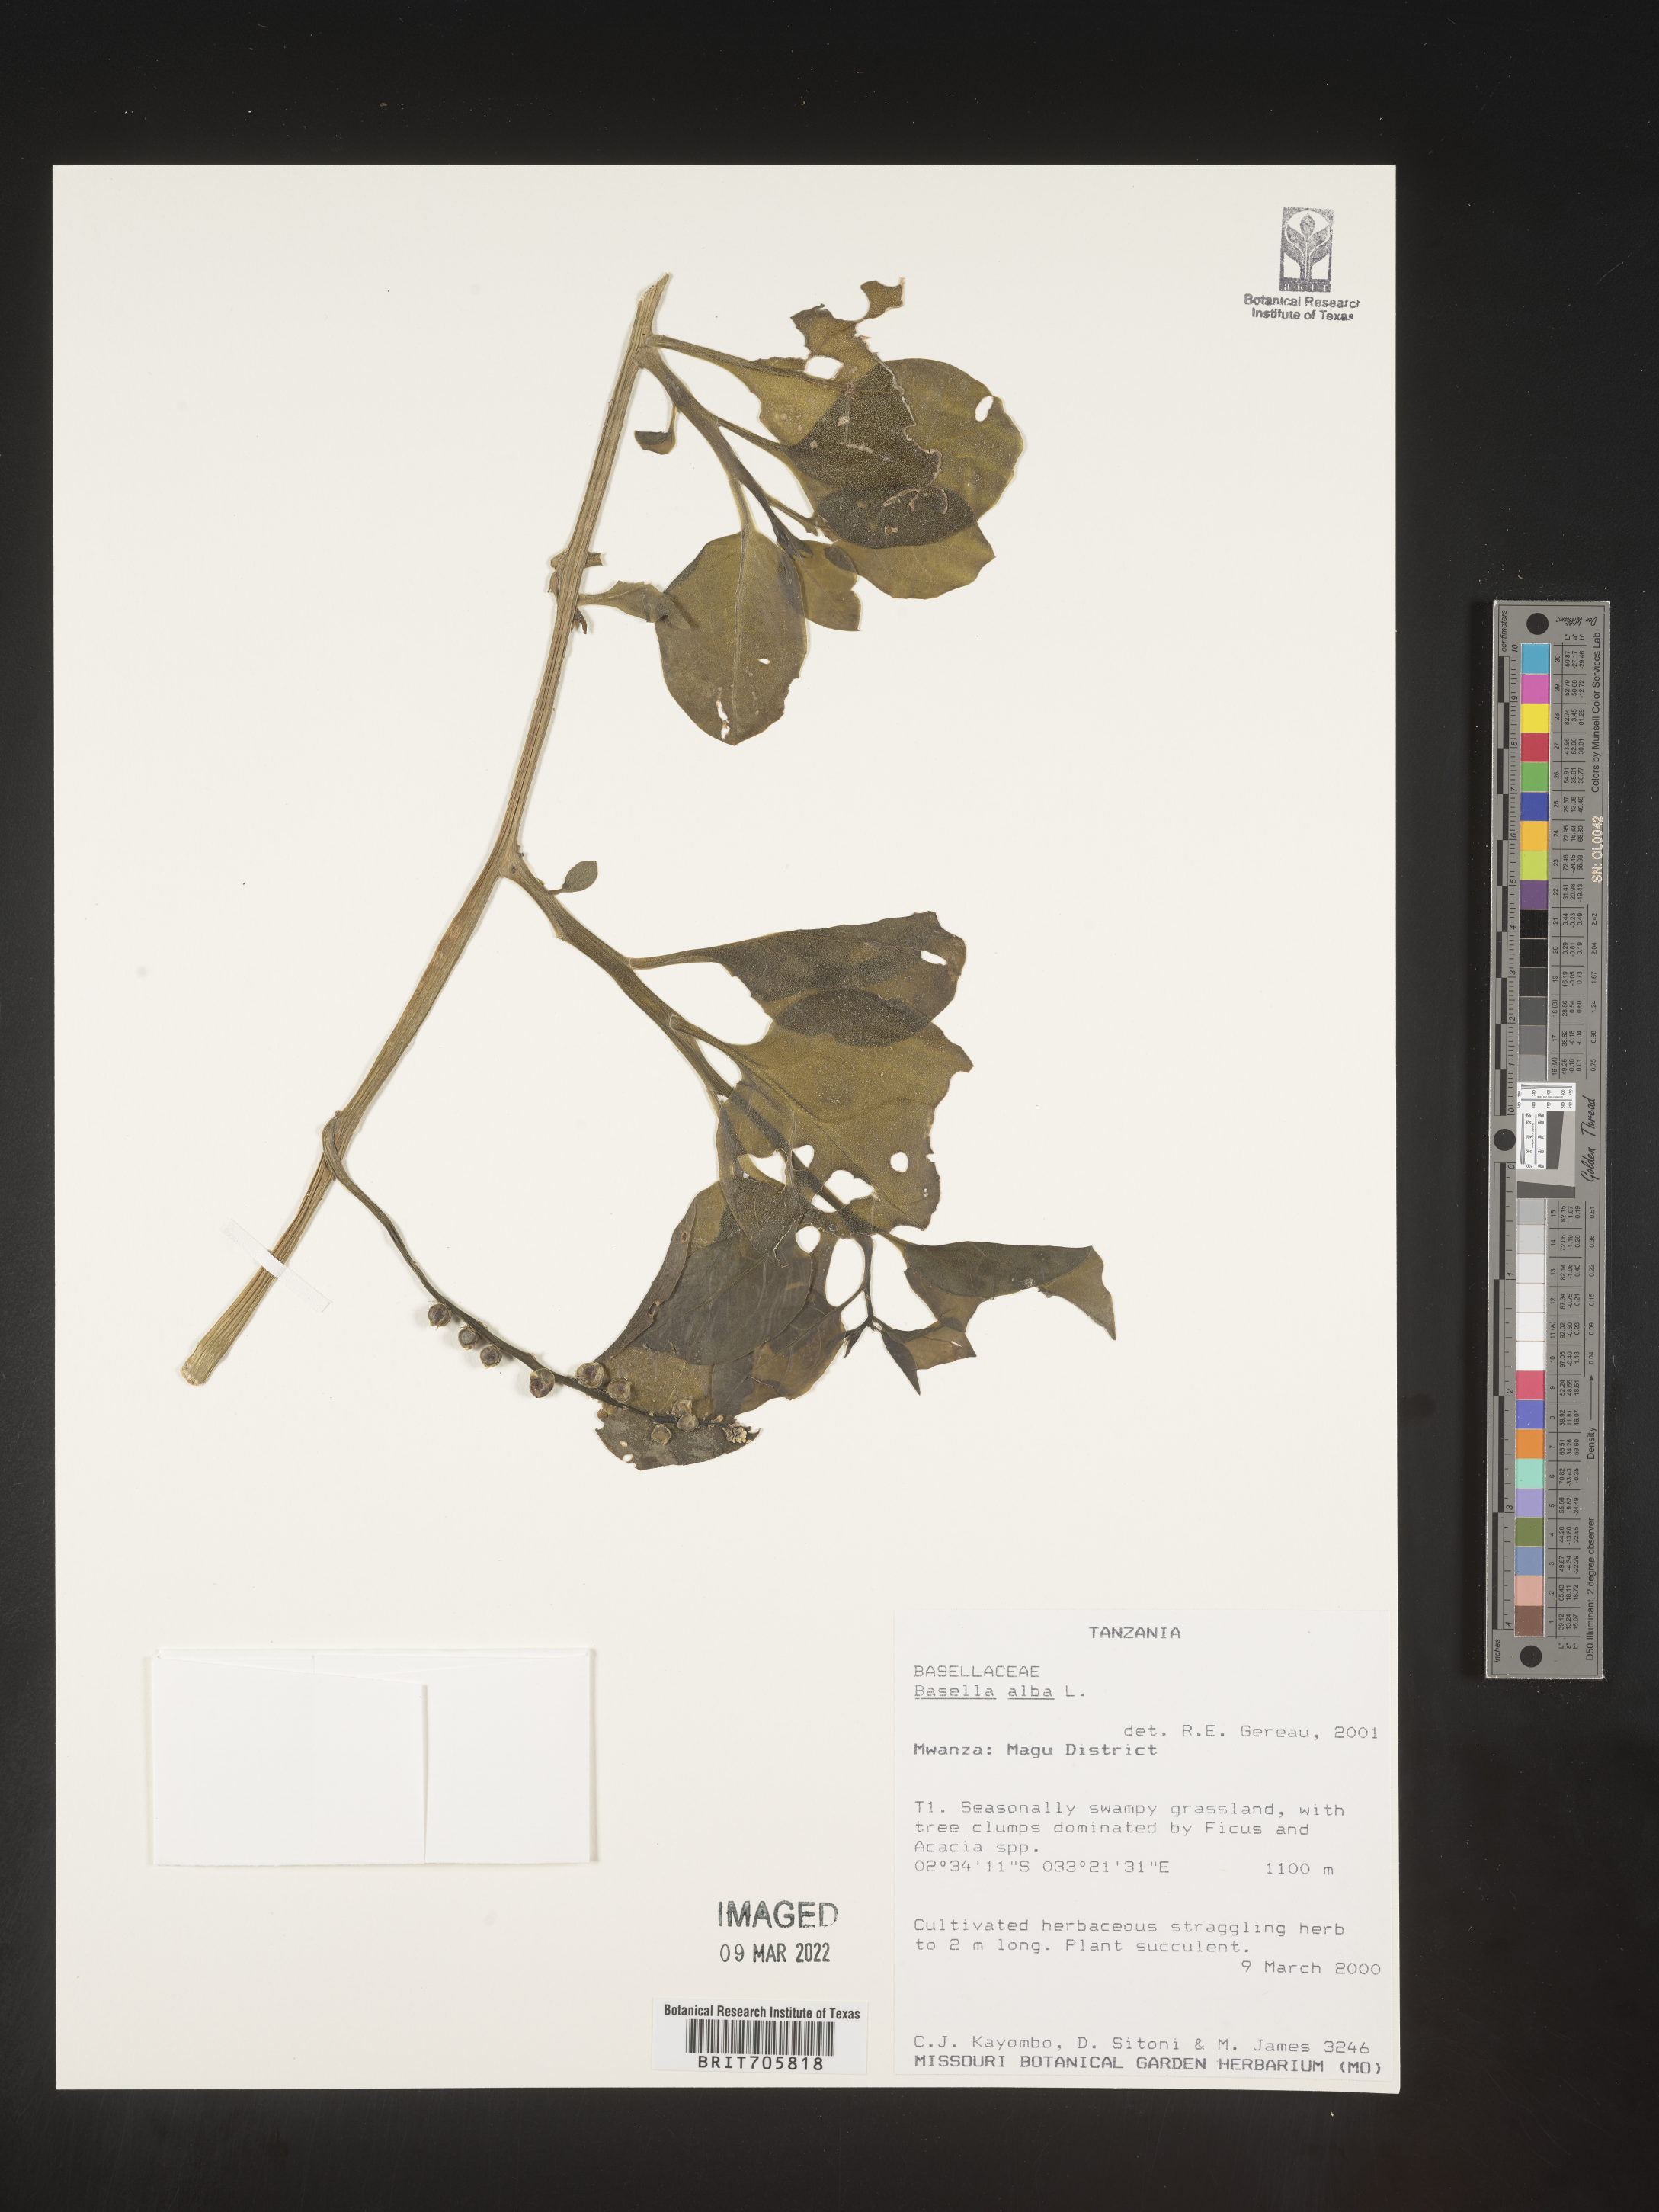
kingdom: Plantae
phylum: Tracheophyta
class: Magnoliopsida
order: Caryophyllales
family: Basellaceae
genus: Basella
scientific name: Basella
